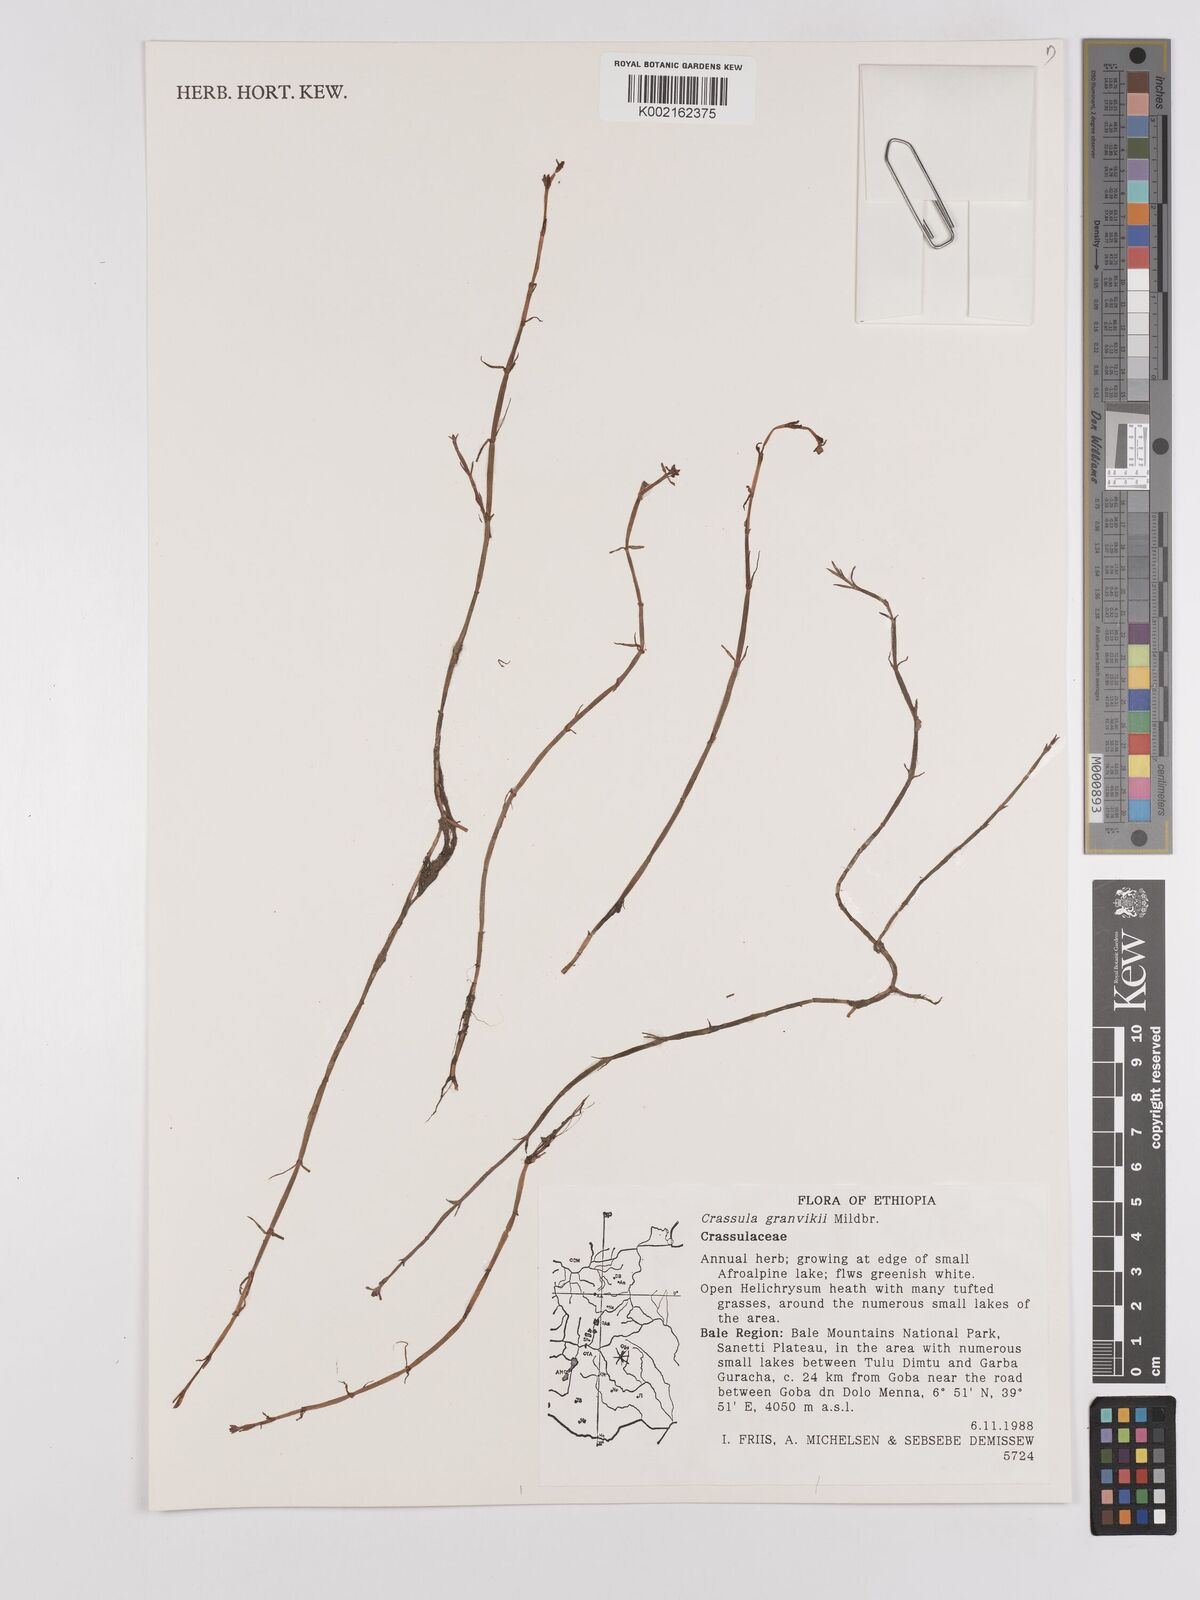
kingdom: Plantae
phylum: Tracheophyta
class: Magnoliopsida
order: Saxifragales
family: Crassulaceae
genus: Crassula
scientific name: Crassula granvikii
